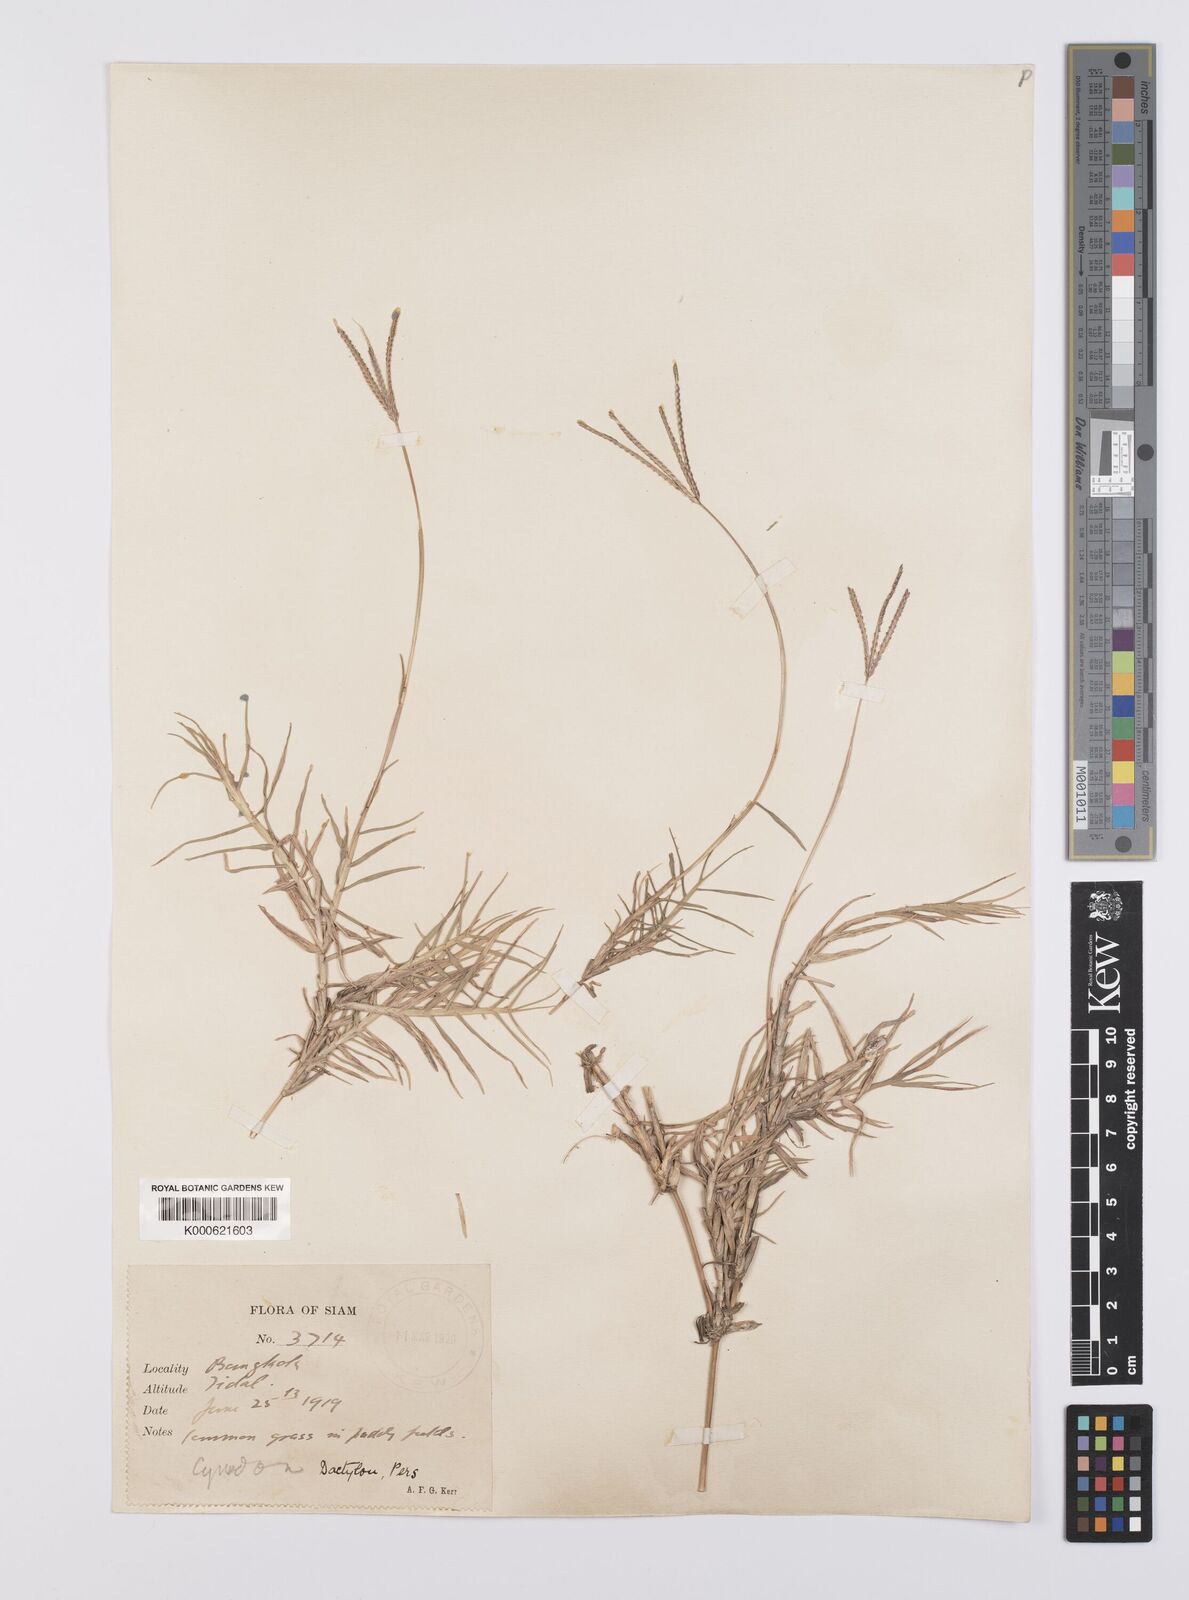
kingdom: Plantae
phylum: Tracheophyta
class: Liliopsida
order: Poales
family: Poaceae
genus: Cynodon
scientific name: Cynodon dactylon
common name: Bermuda grass
